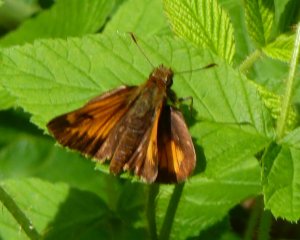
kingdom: Animalia
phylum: Arthropoda
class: Insecta
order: Lepidoptera
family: Hesperiidae
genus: Lon
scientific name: Lon hobomok
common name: Hobomok Skipper
